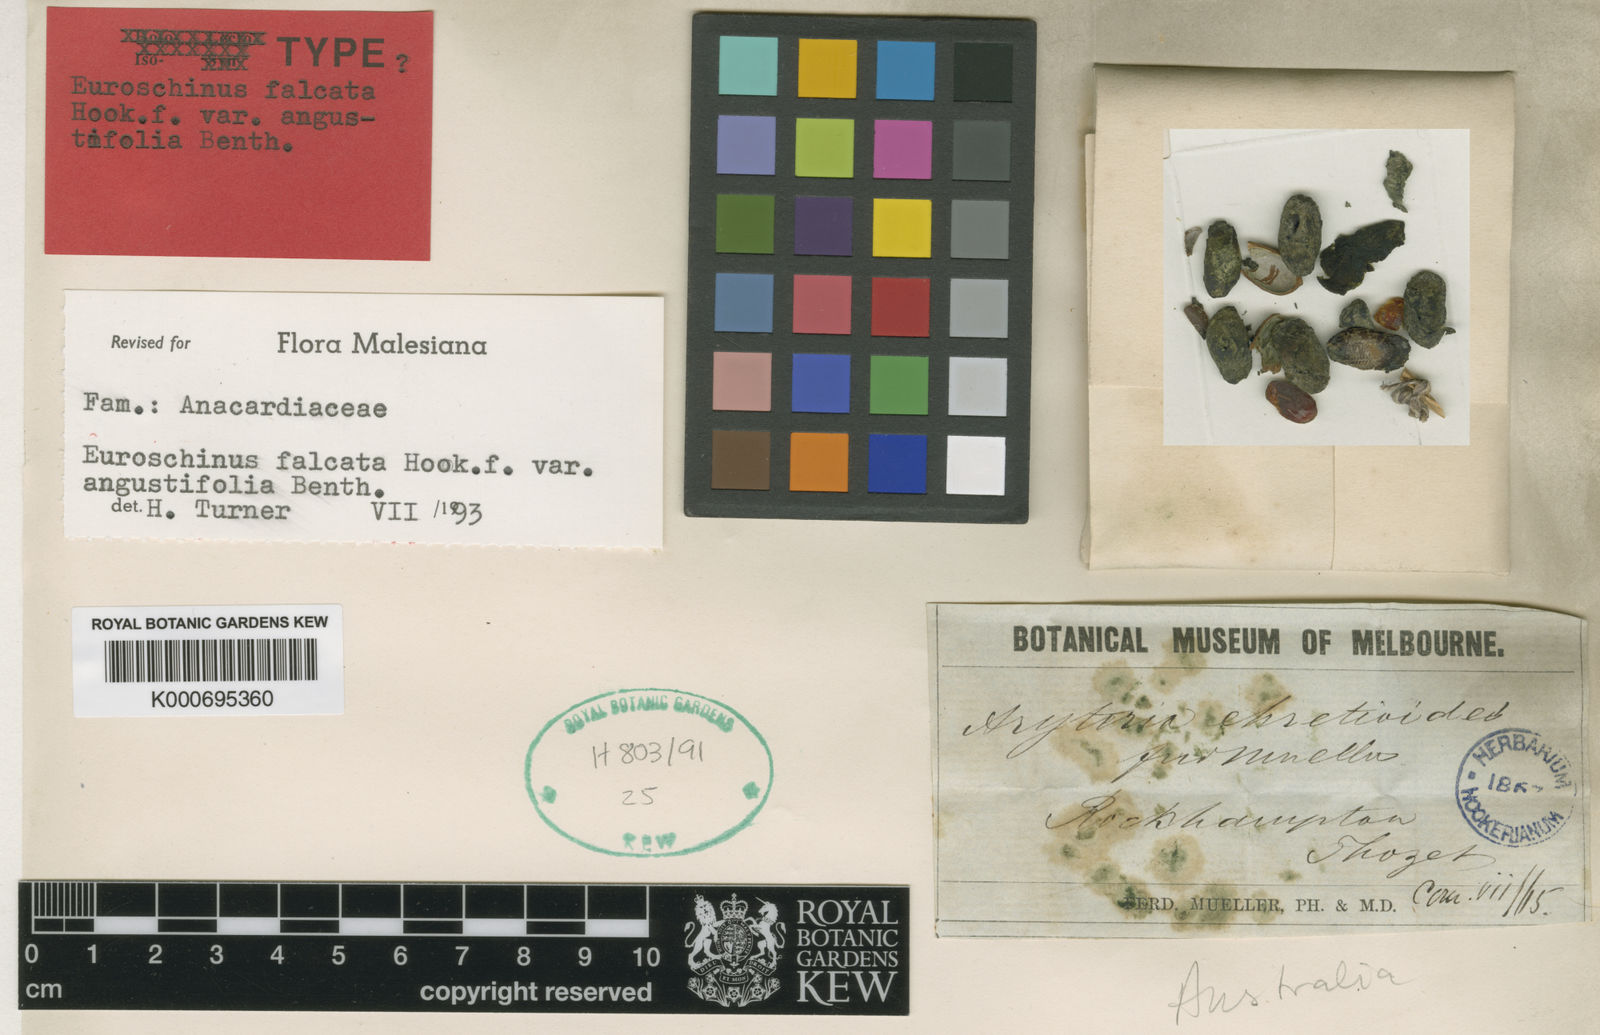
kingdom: Plantae
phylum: Tracheophyta
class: Magnoliopsida
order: Sapindales
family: Anacardiaceae
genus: Euroschinus
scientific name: Euroschinus falcatus
